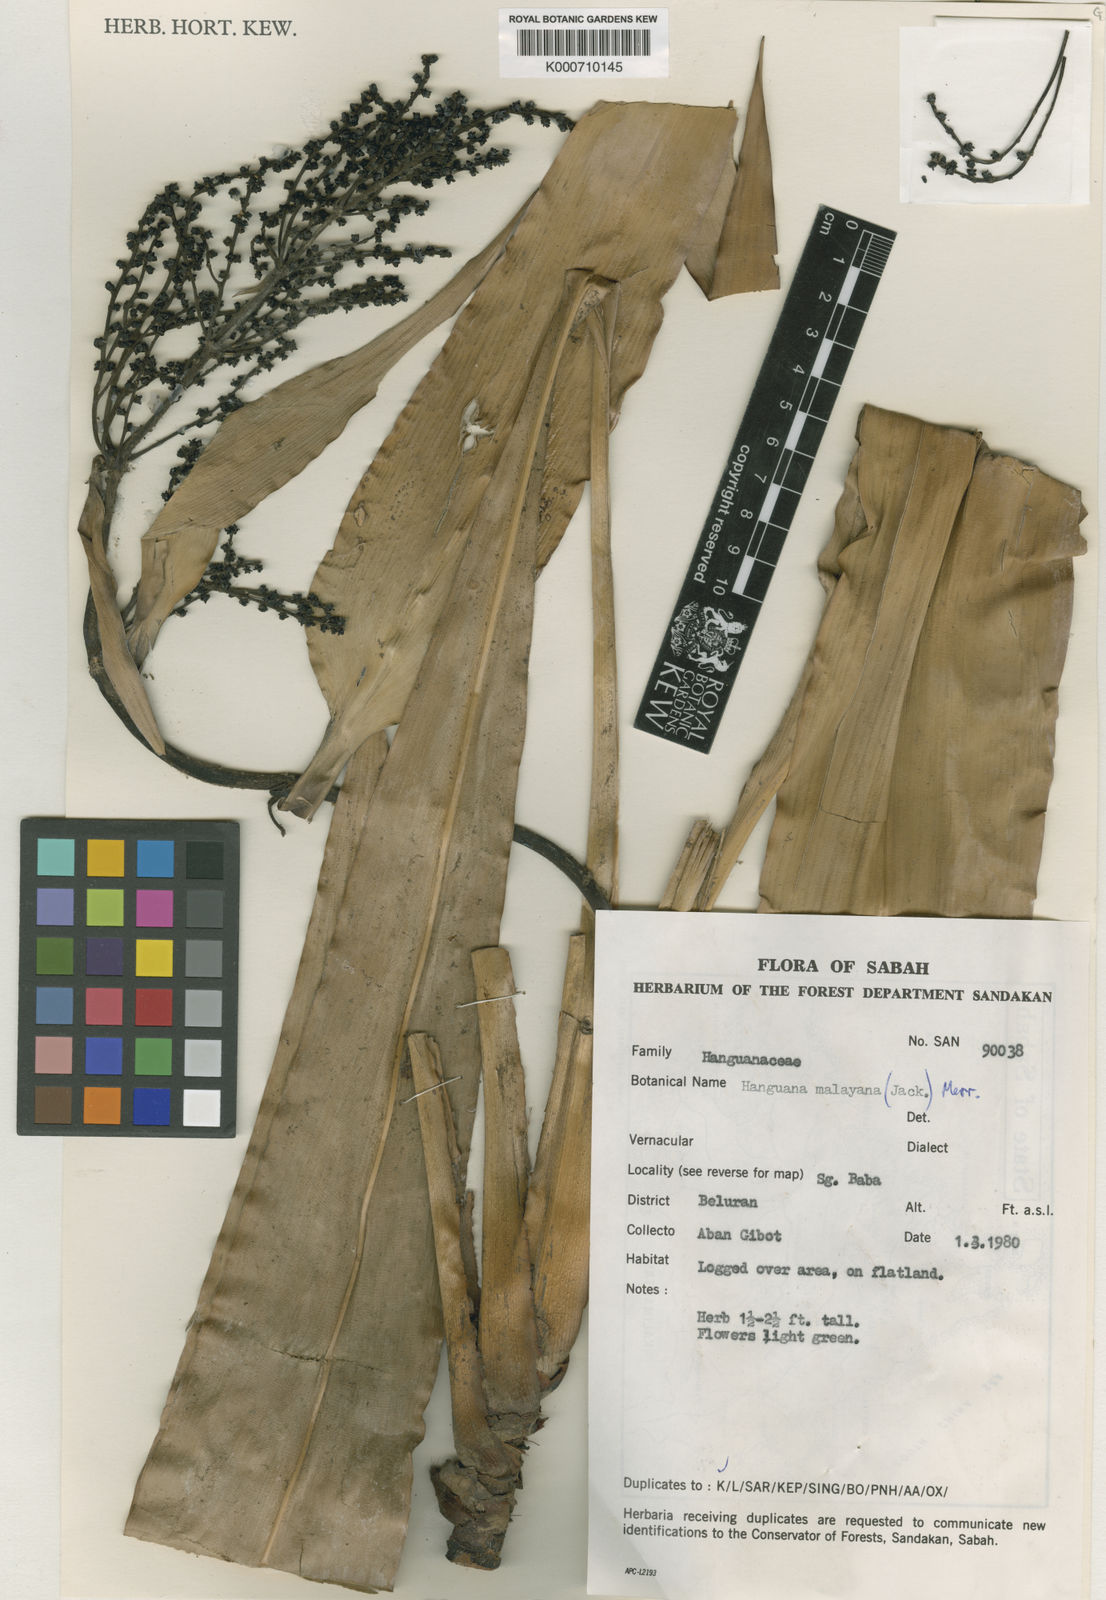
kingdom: Plantae
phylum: Tracheophyta
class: Liliopsida
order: Commelinales
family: Hanguanaceae
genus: Hanguana
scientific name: Hanguana malayana
